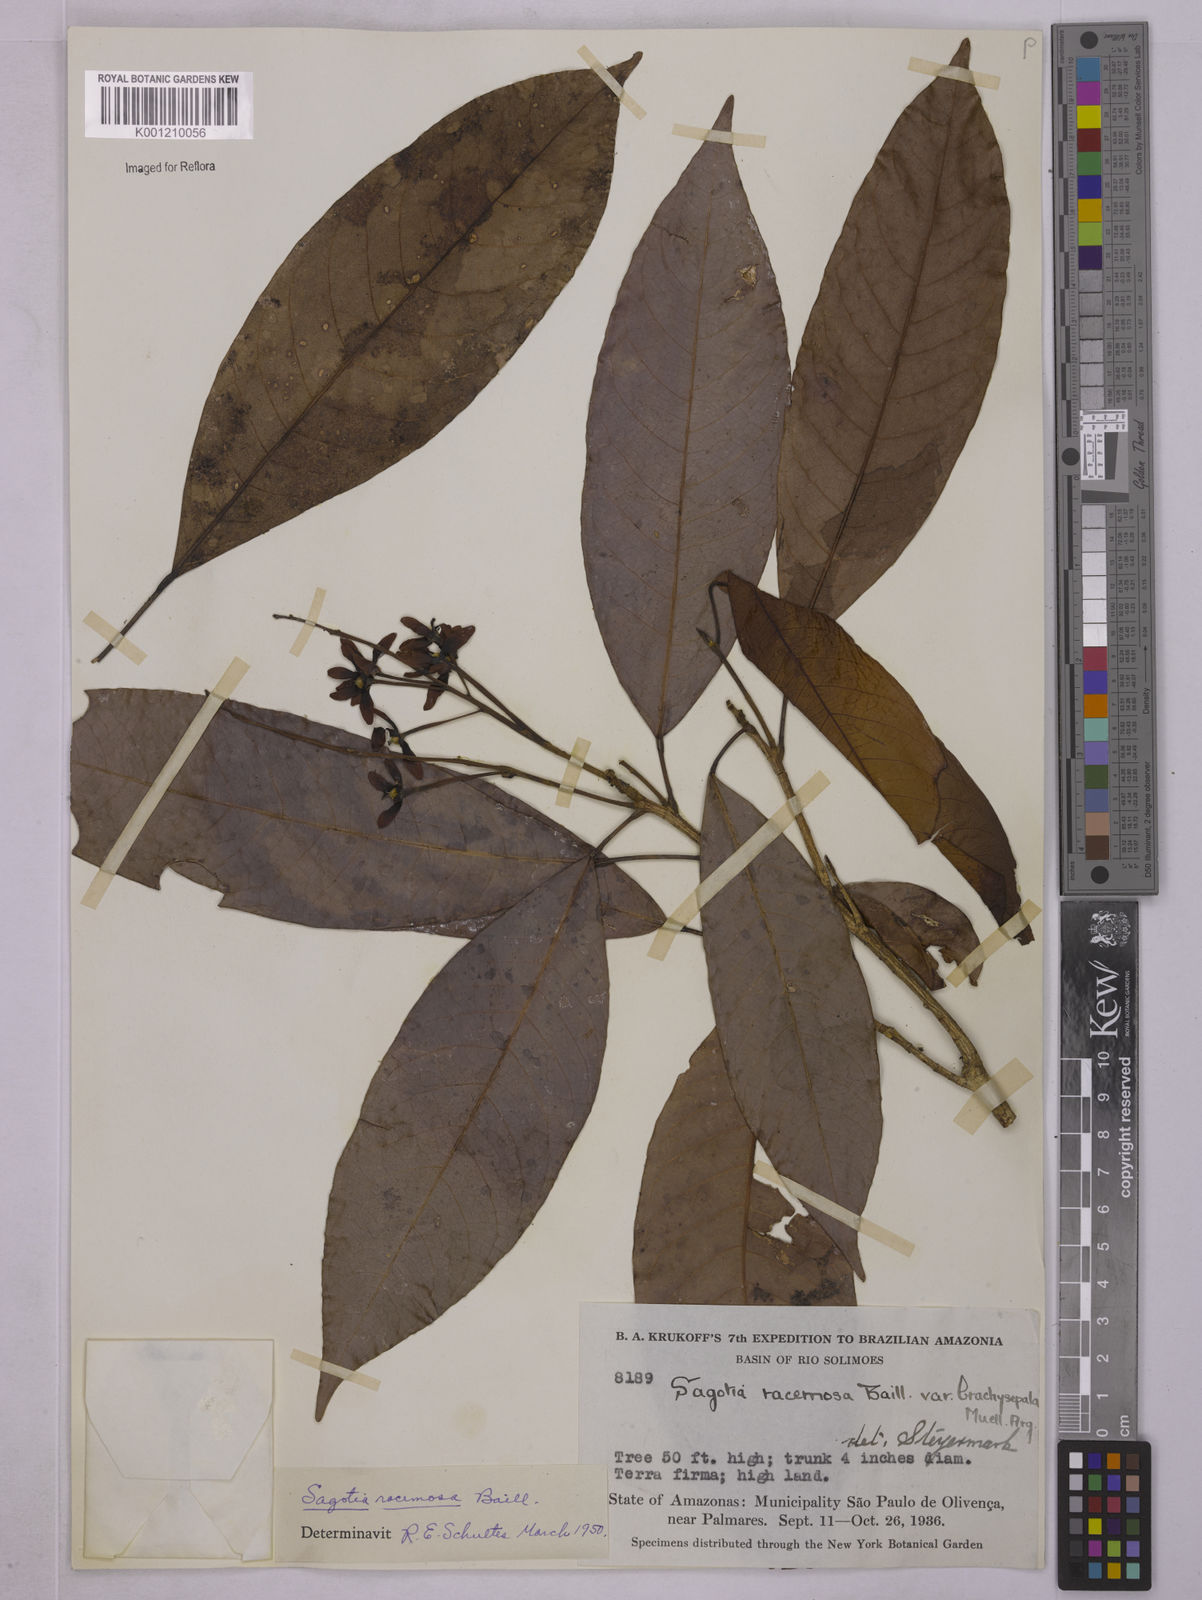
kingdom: Plantae
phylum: Tracheophyta
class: Magnoliopsida
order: Malpighiales
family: Euphorbiaceae
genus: Sagotia
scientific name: Sagotia racemosa
